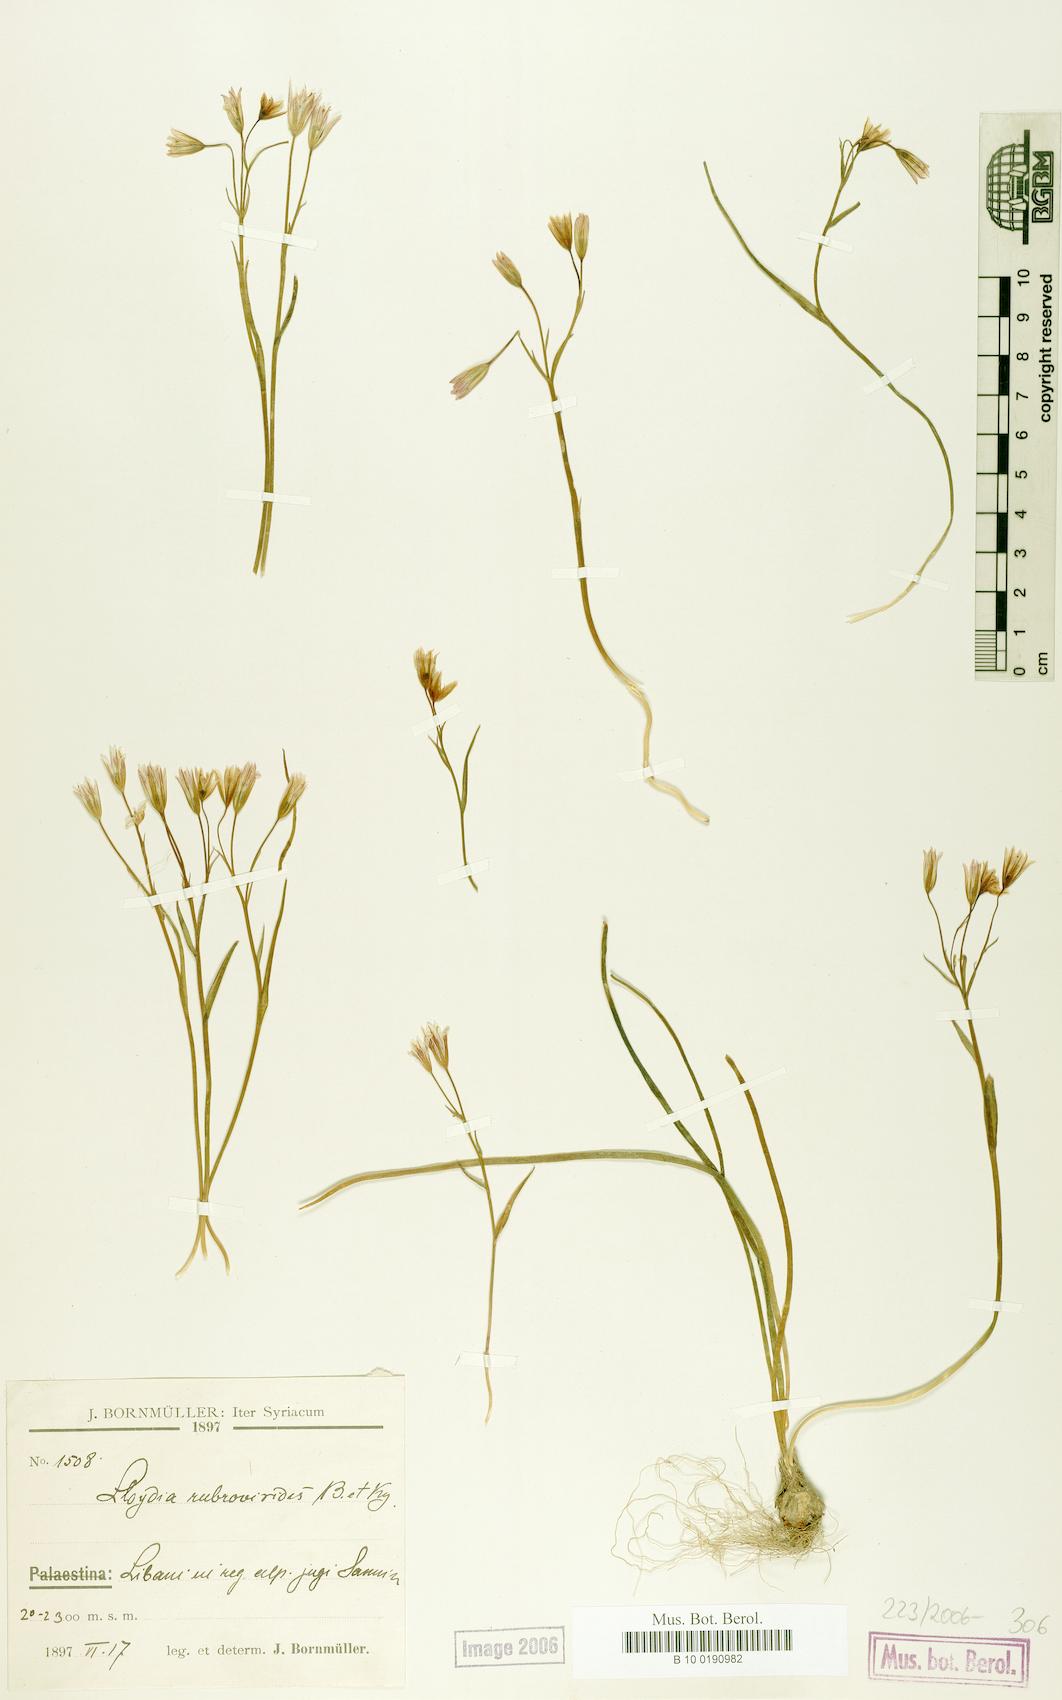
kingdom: Plantae
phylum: Tracheophyta
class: Liliopsida
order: Liliales
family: Liliaceae
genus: Gagea
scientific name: Gagea libanotica
